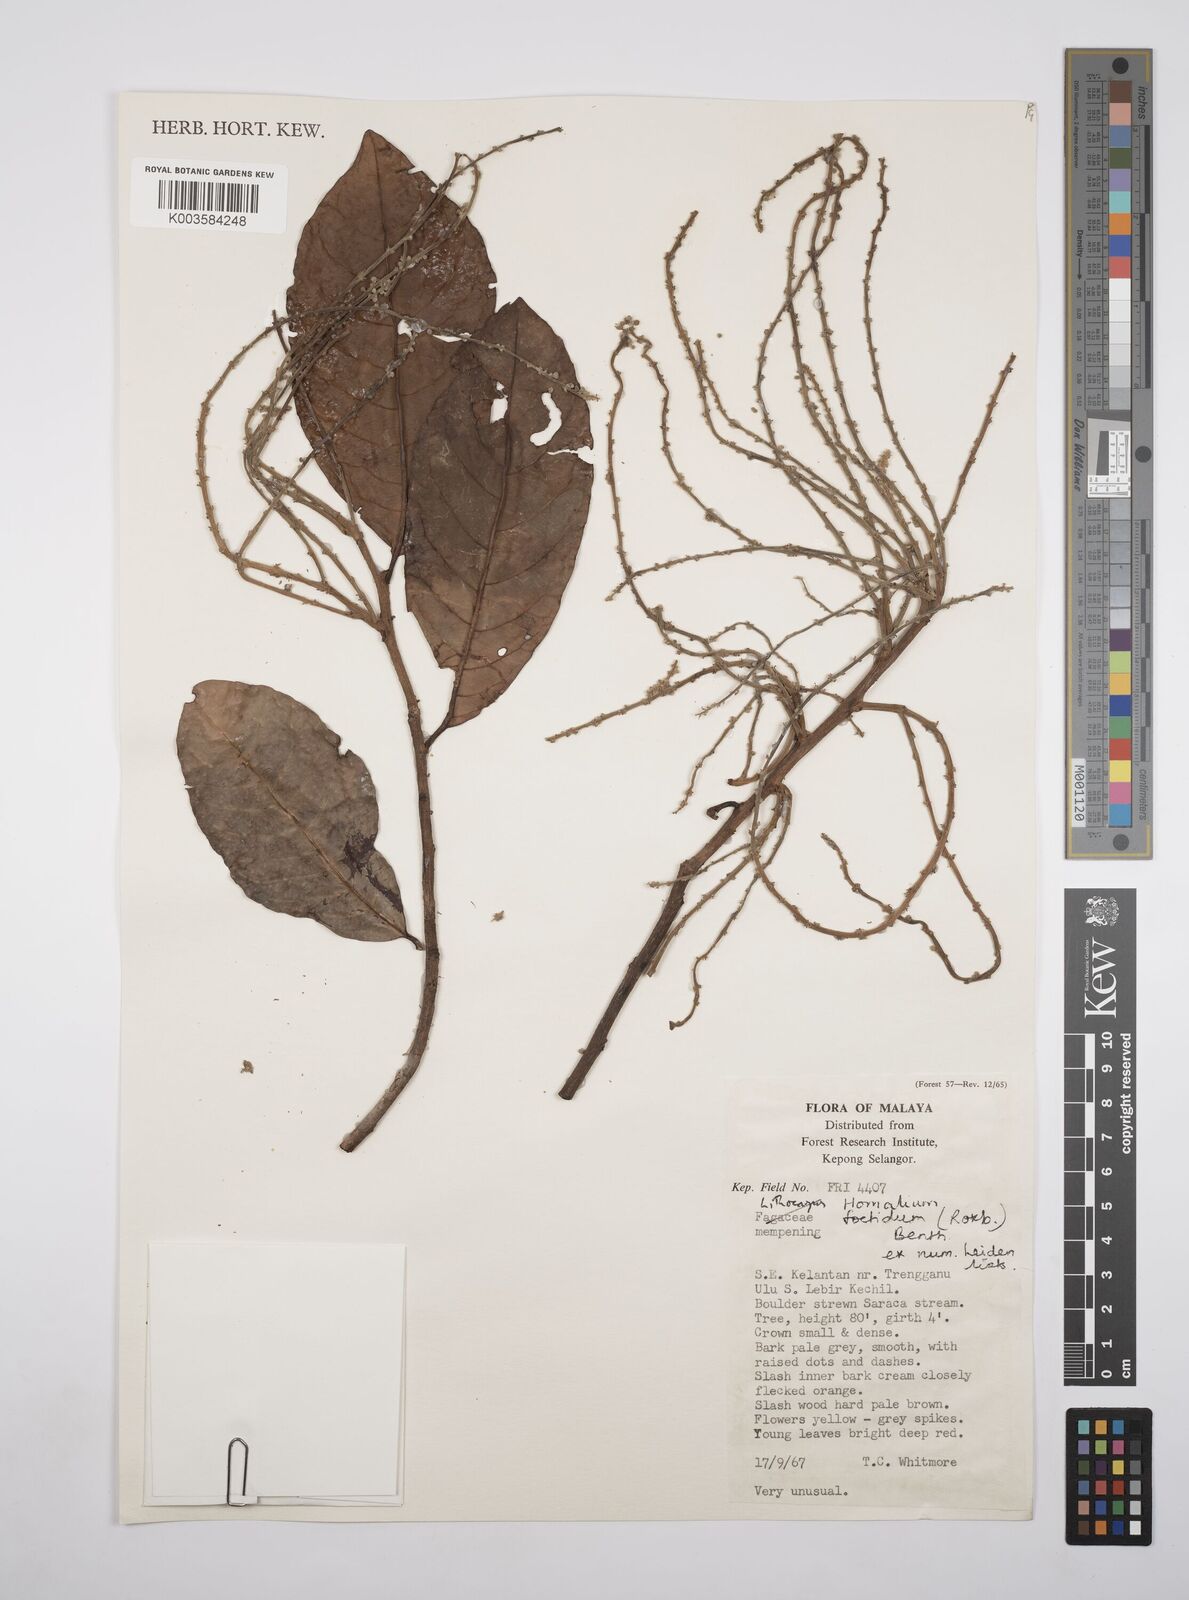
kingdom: Plantae
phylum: Tracheophyta
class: Magnoliopsida
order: Malpighiales
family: Salicaceae
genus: Homalium
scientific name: Homalium foetidum
